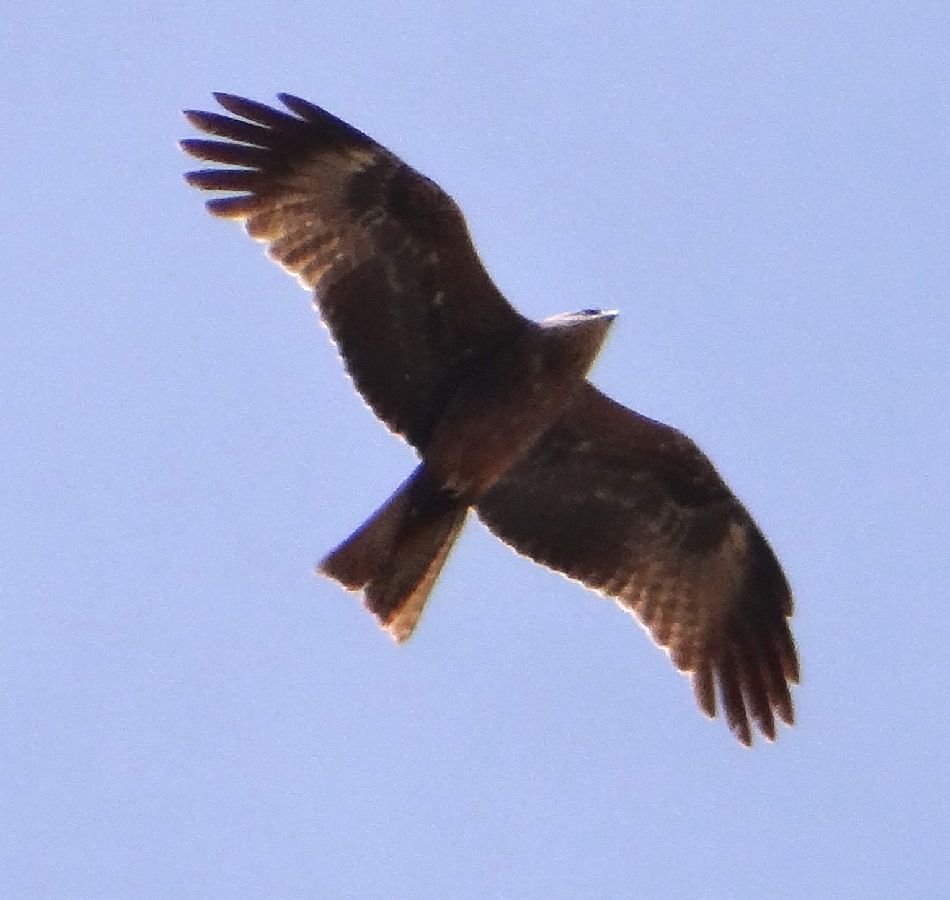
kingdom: Animalia
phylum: Chordata
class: Aves
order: Accipitriformes
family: Accipitridae
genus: Milvus
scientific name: Milvus migrans
